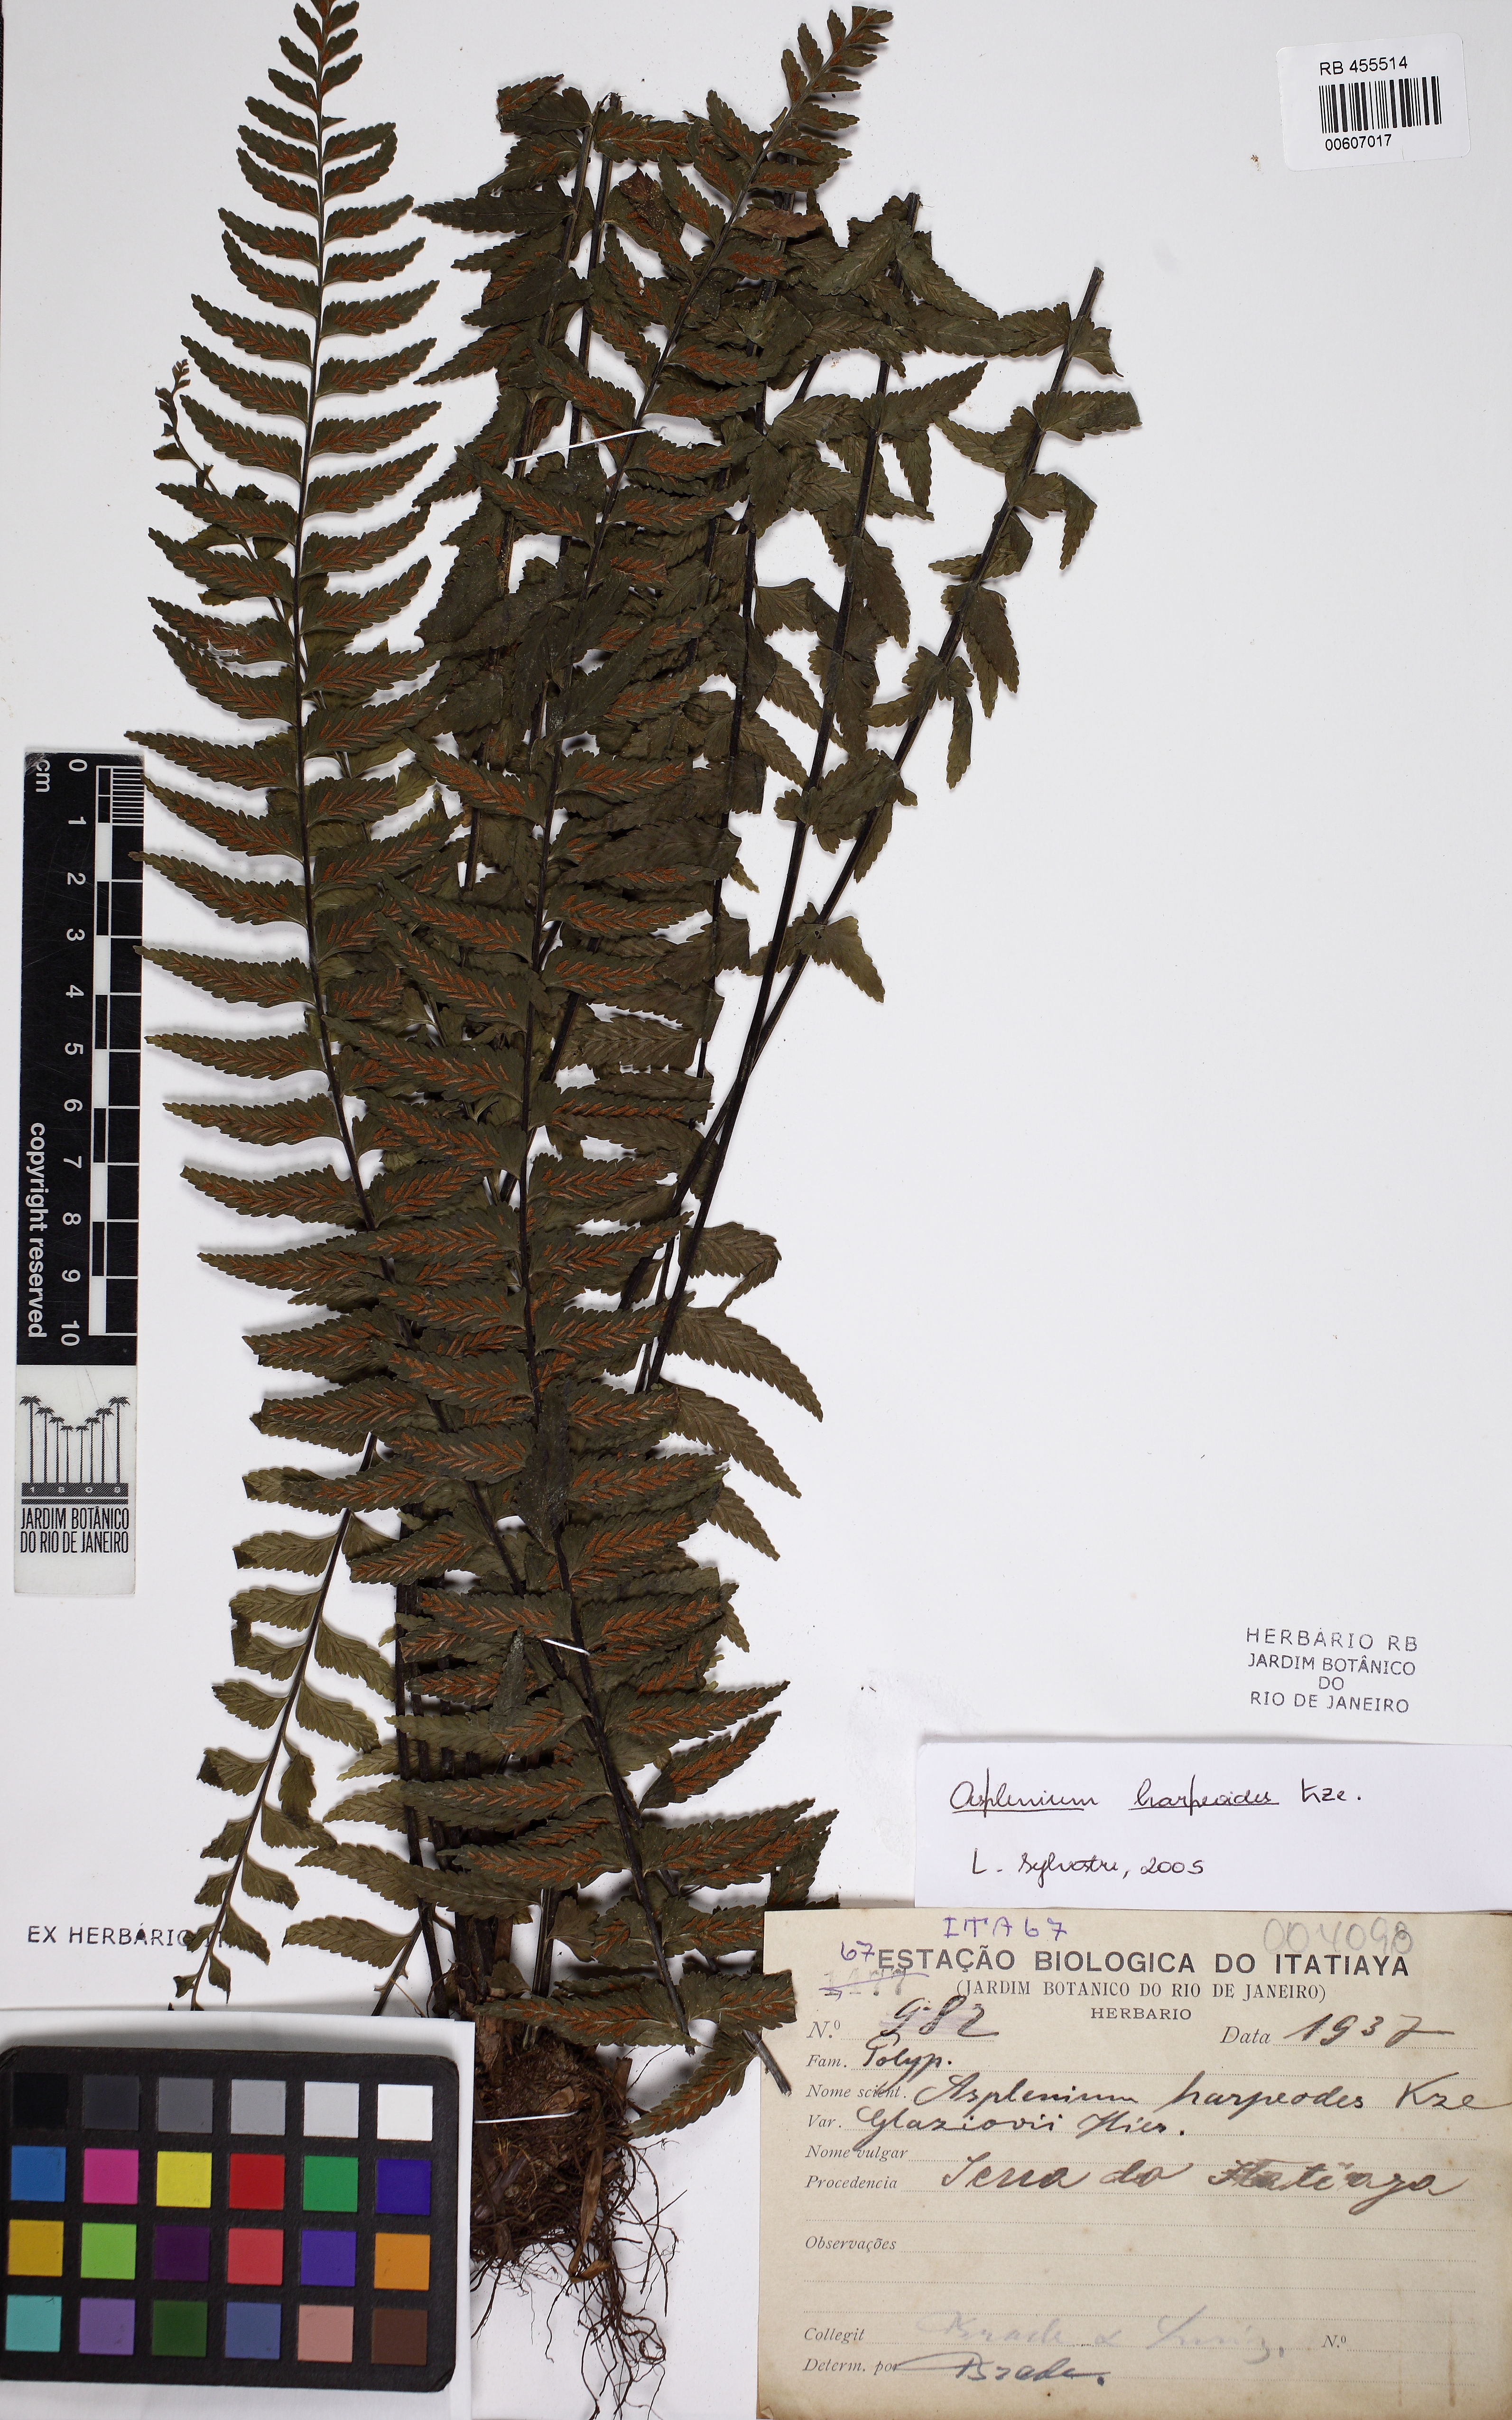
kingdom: Plantae
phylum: Tracheophyta
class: Polypodiopsida
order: Polypodiales
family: Aspleniaceae
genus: Asplenium
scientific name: Asplenium harpeodes
